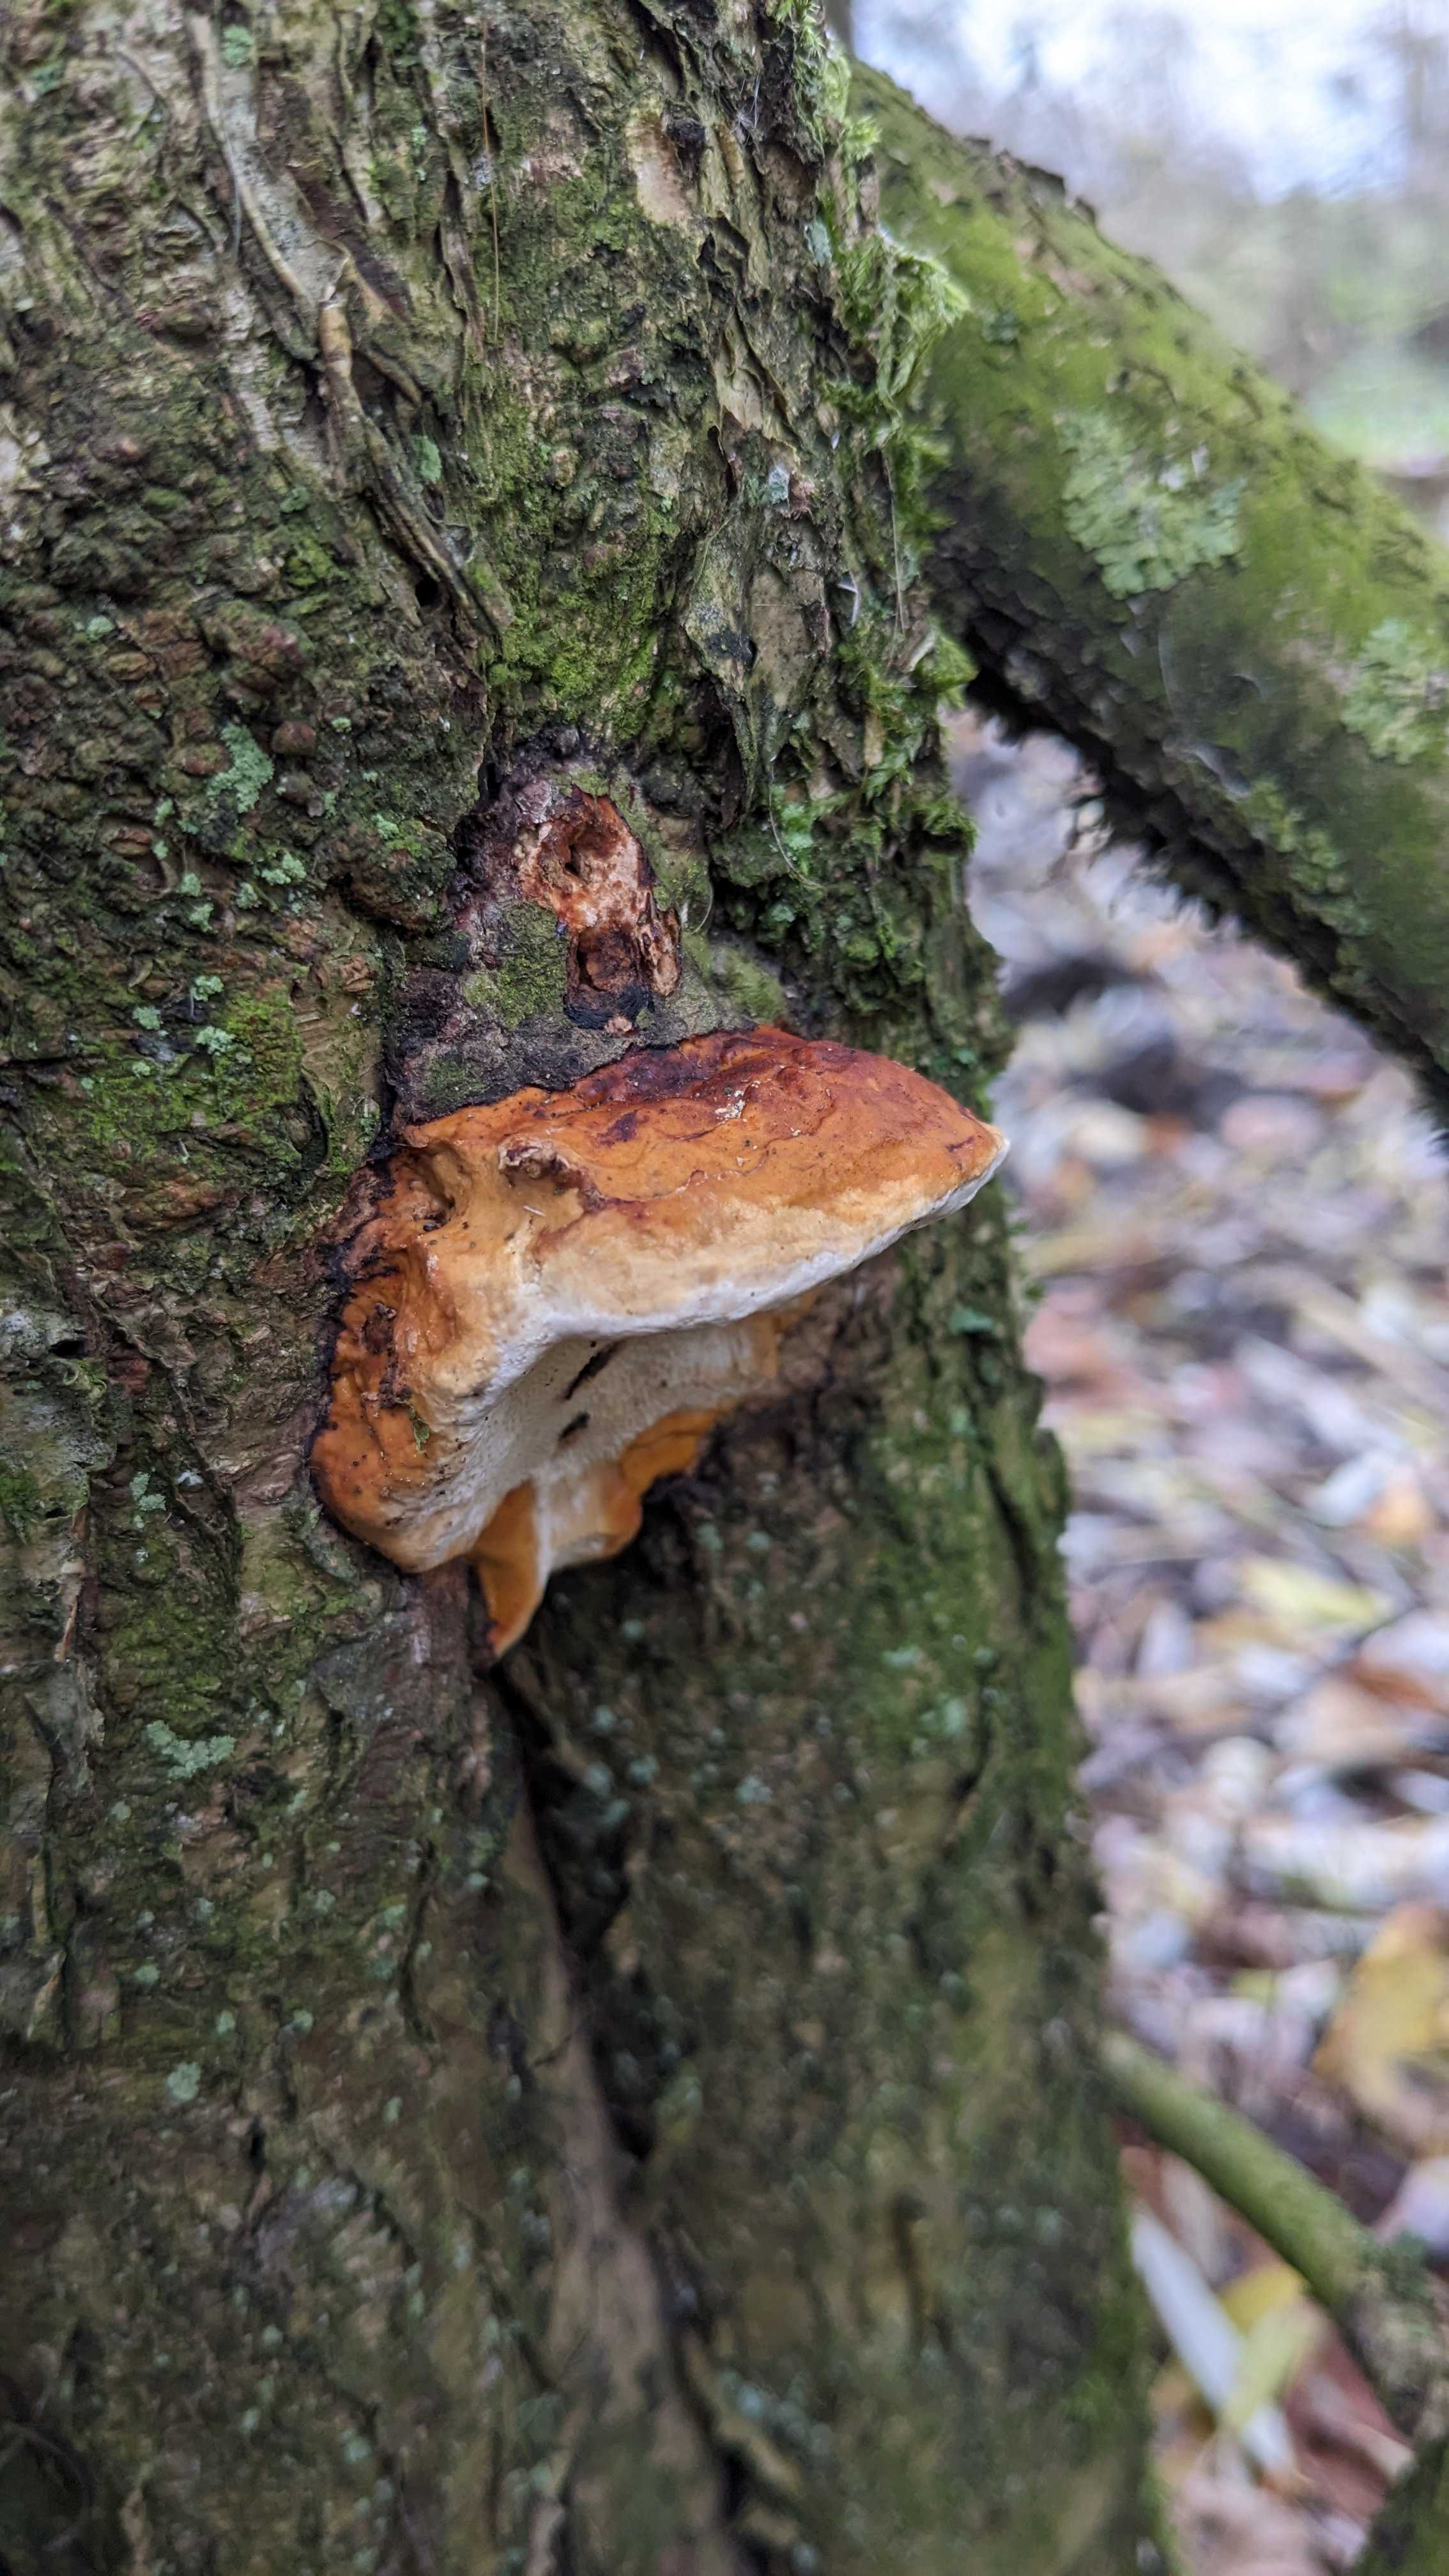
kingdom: Fungi
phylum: Basidiomycota
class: Agaricomycetes
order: Polyporales
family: Fomitopsidaceae
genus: Fomitopsis
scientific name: Fomitopsis pinicola
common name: randbæltet hovporesvamp
